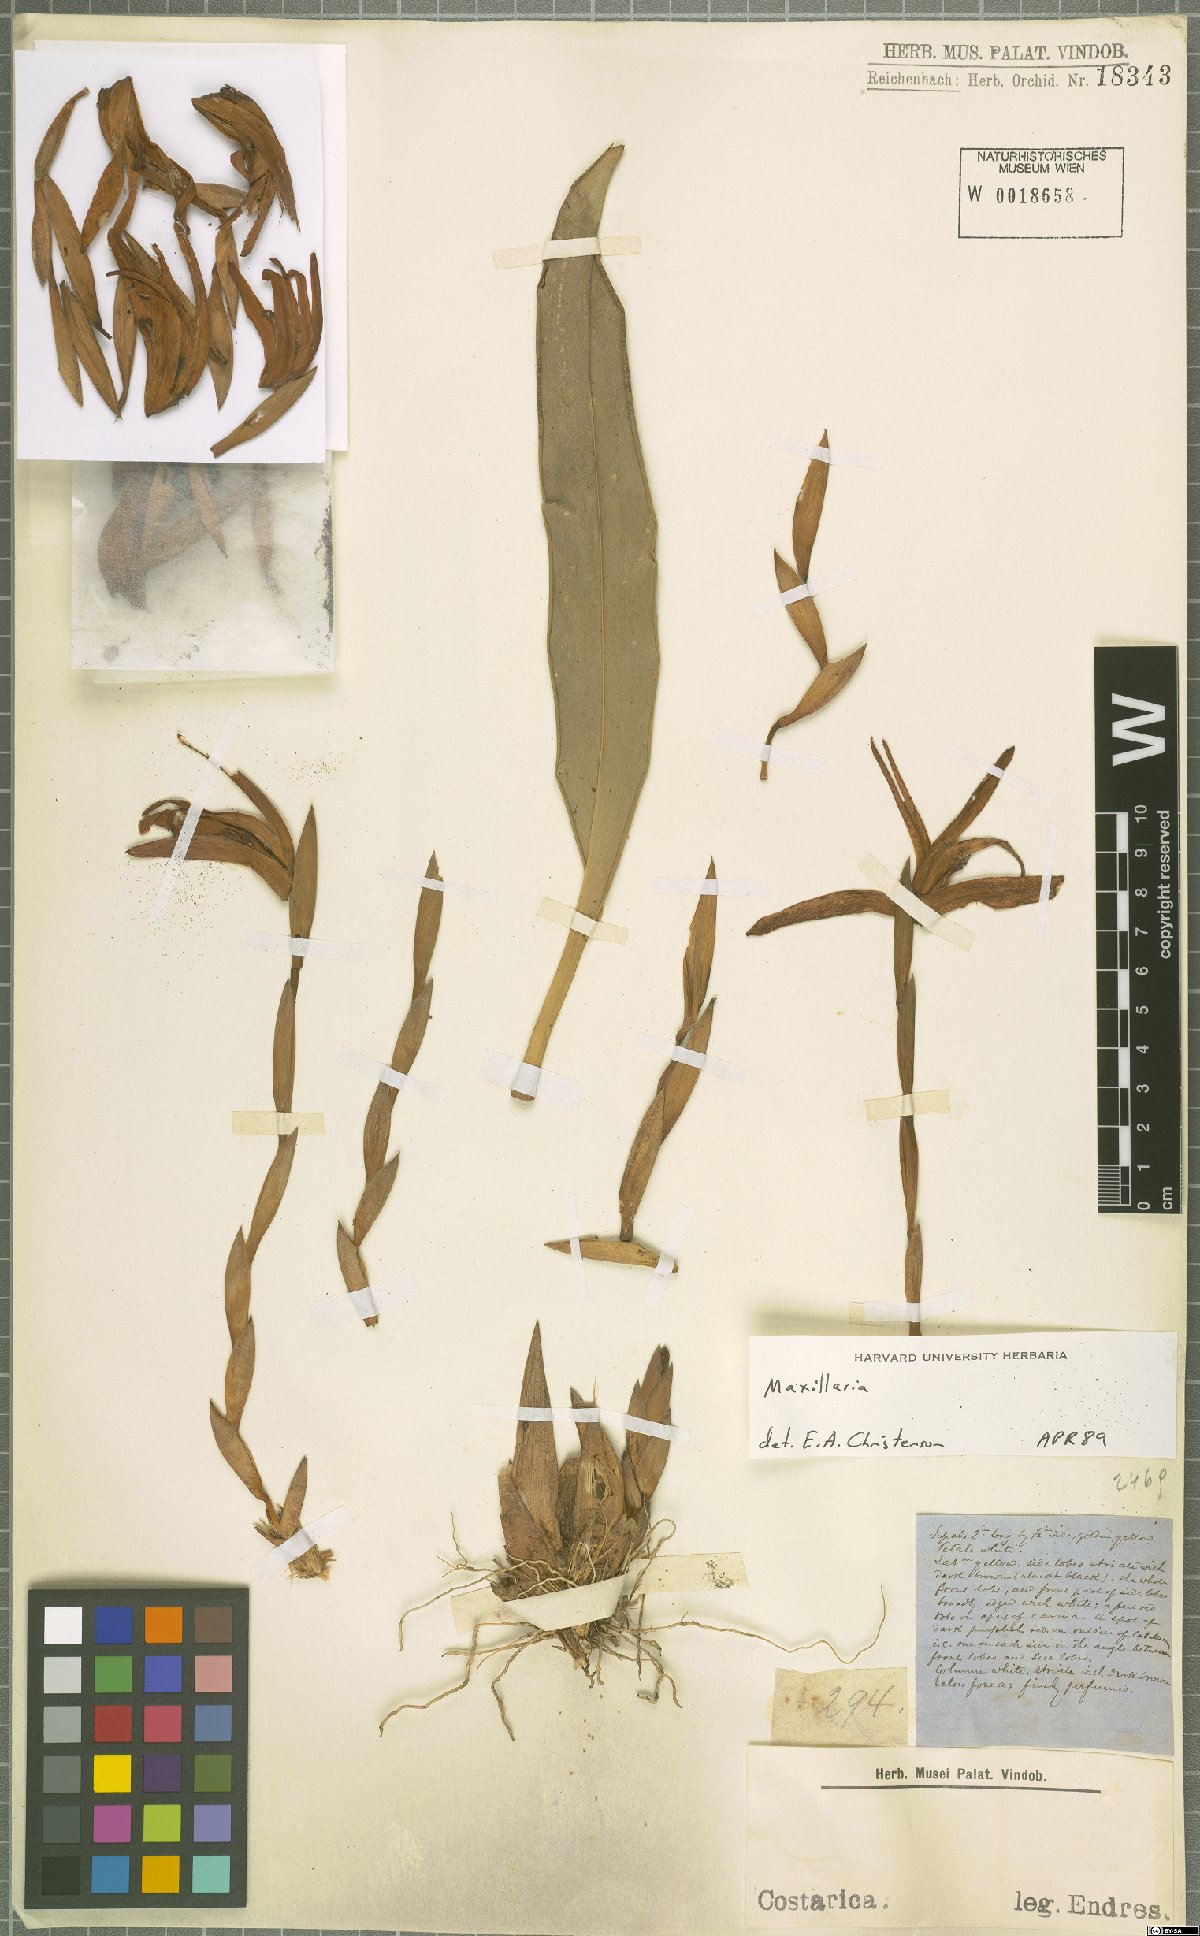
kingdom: Plantae
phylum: Tracheophyta
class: Liliopsida
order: Asparagales
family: Orchidaceae
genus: Maxillaria
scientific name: Maxillaria
